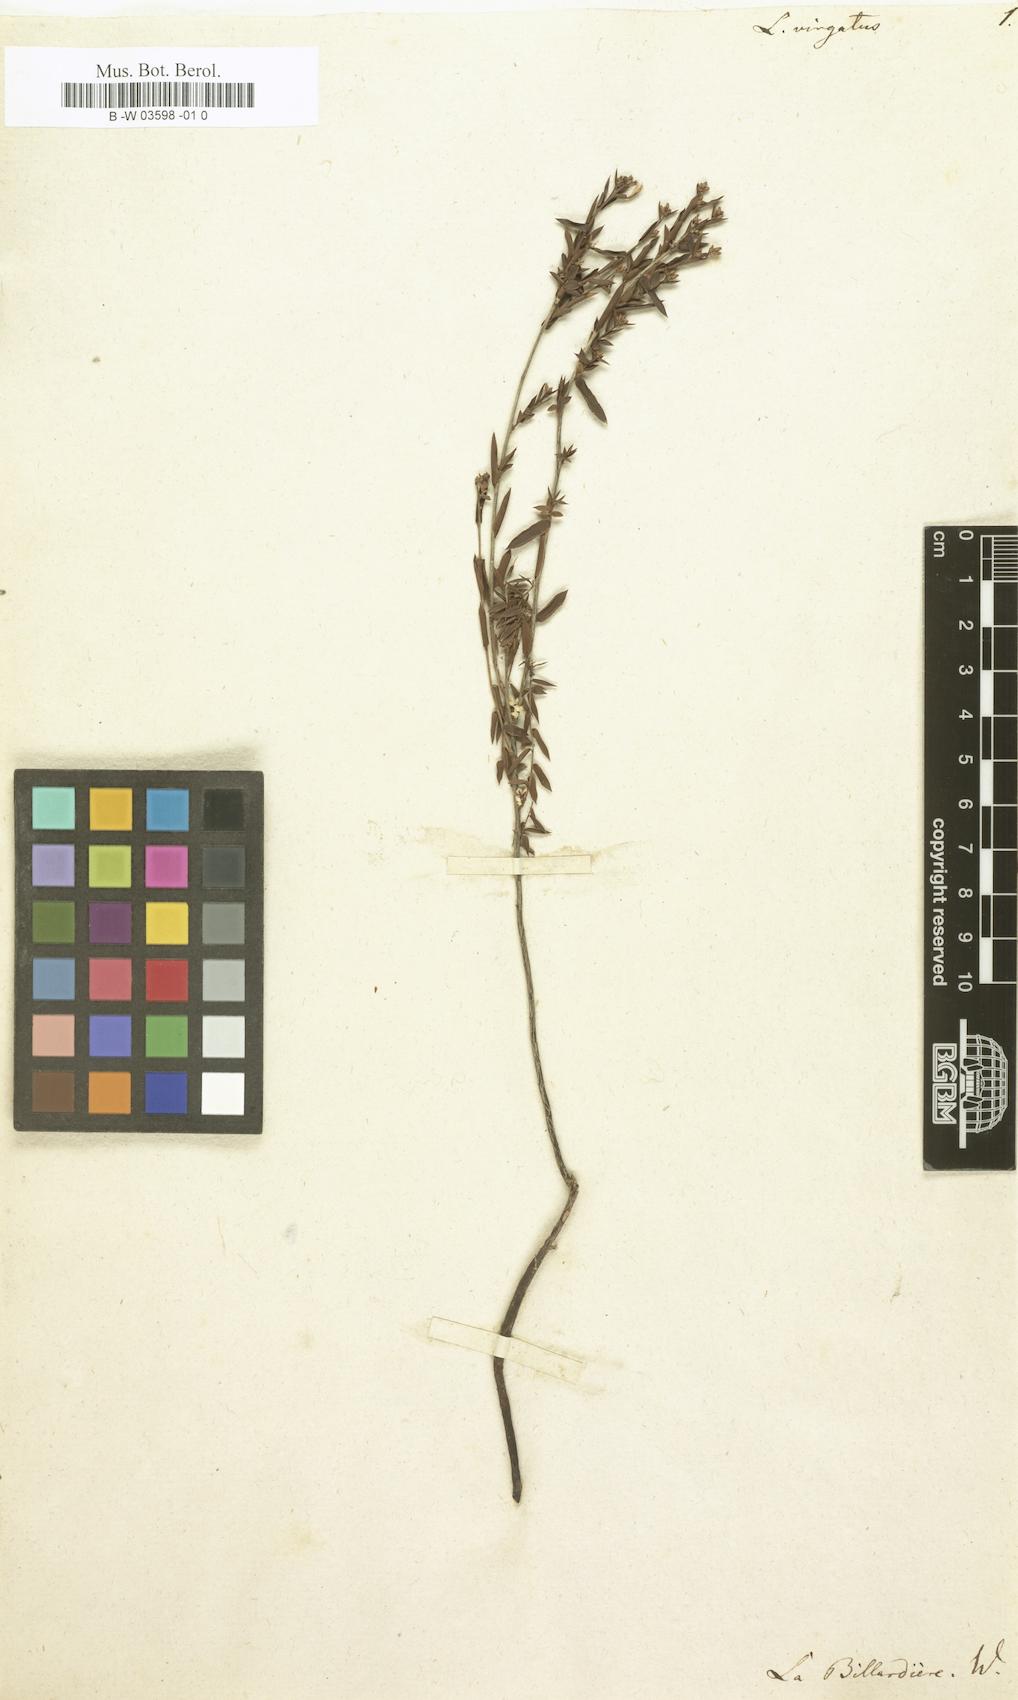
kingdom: Plantae
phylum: Tracheophyta
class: Magnoliopsida
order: Ericales
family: Ericaceae
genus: Leucopogon
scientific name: Leucopogon virgatus
